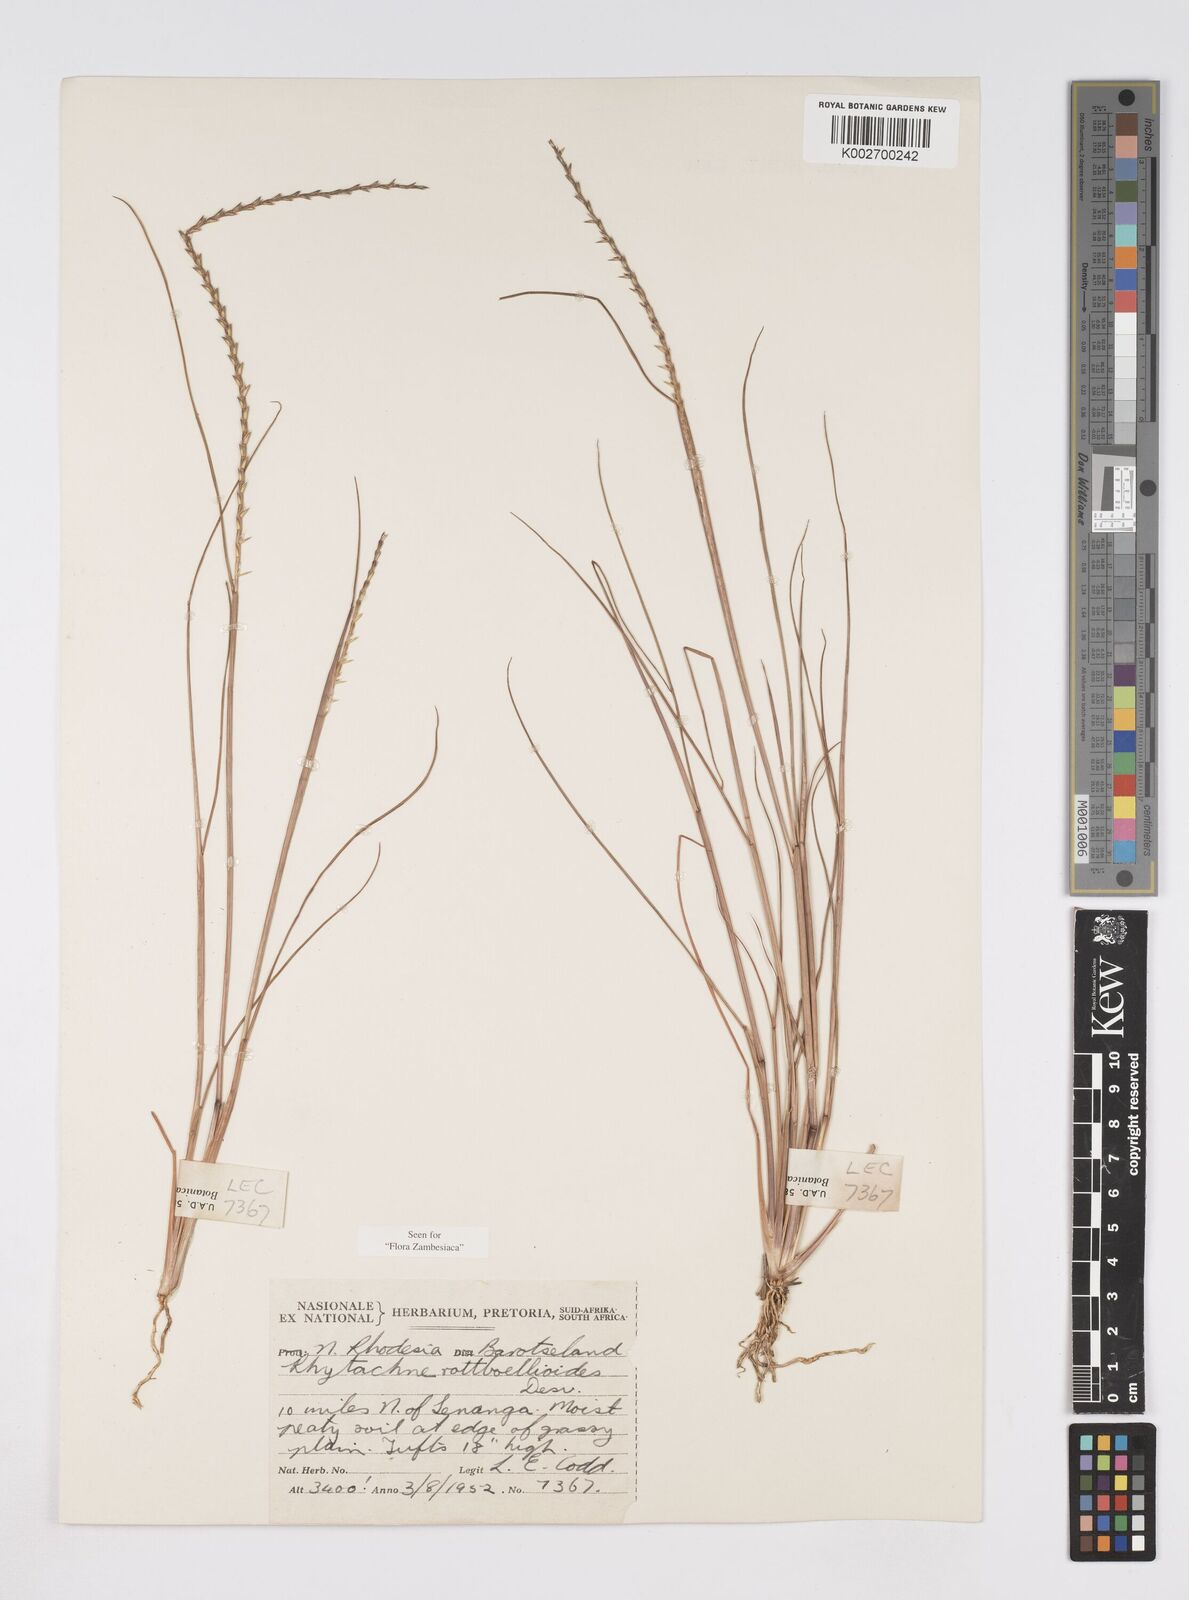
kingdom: Plantae
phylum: Tracheophyta
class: Liliopsida
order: Poales
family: Poaceae
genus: Rhytachne
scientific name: Rhytachne rottboellioides
